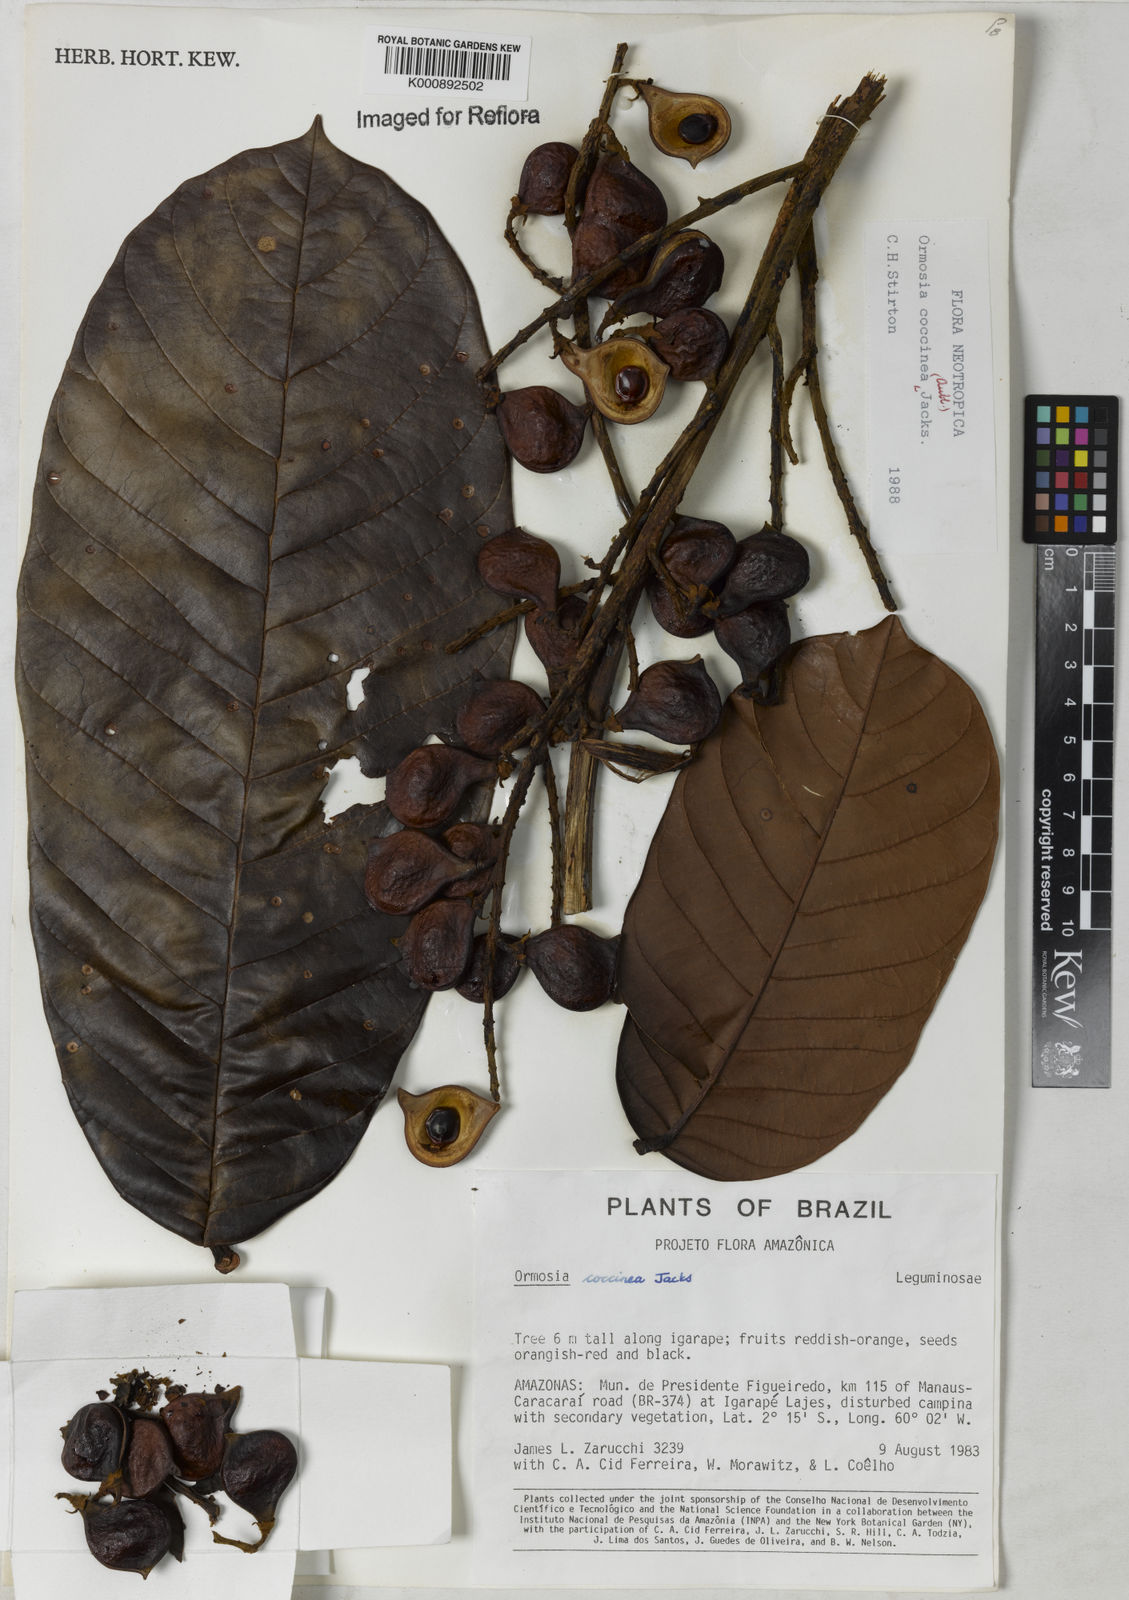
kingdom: Plantae
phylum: Tracheophyta
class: Magnoliopsida
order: Fabales
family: Fabaceae
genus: Ormosia
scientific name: Ormosia coccinea
